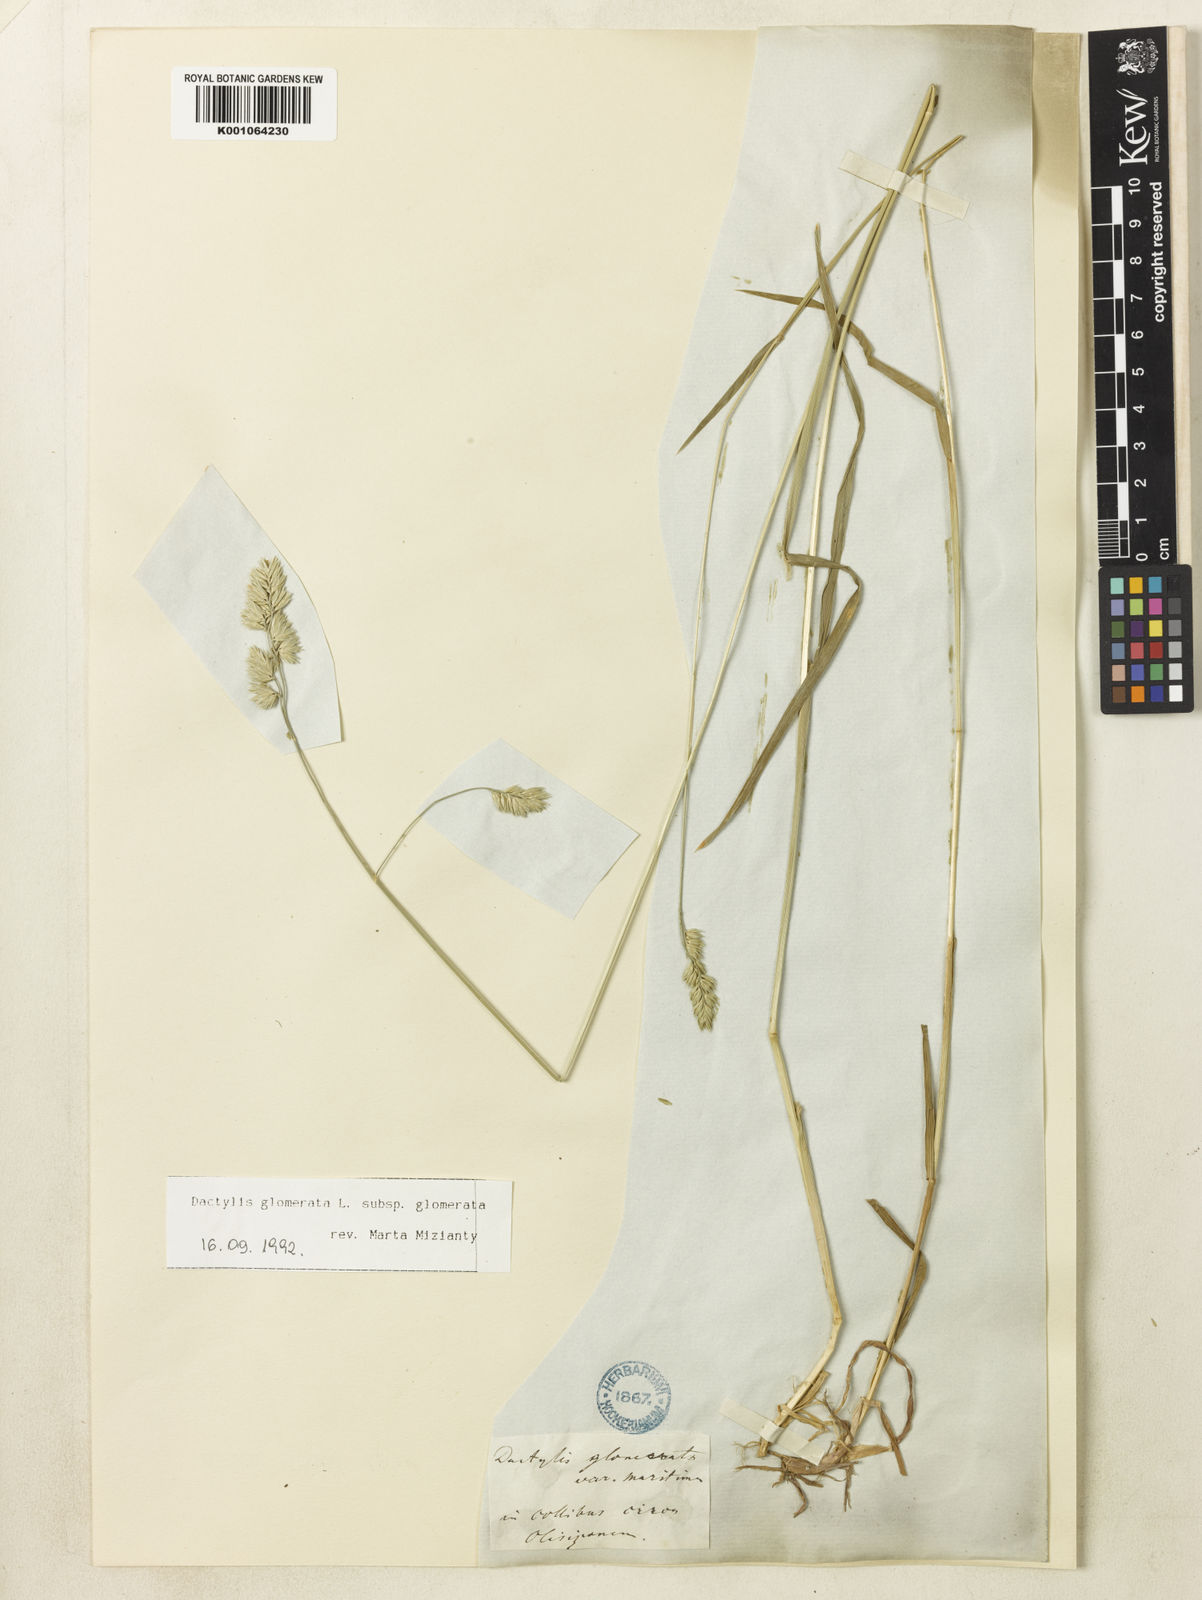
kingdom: Plantae
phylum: Tracheophyta
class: Liliopsida
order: Poales
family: Poaceae
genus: Dactylis
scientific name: Dactylis glomerata
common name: Orchardgrass
